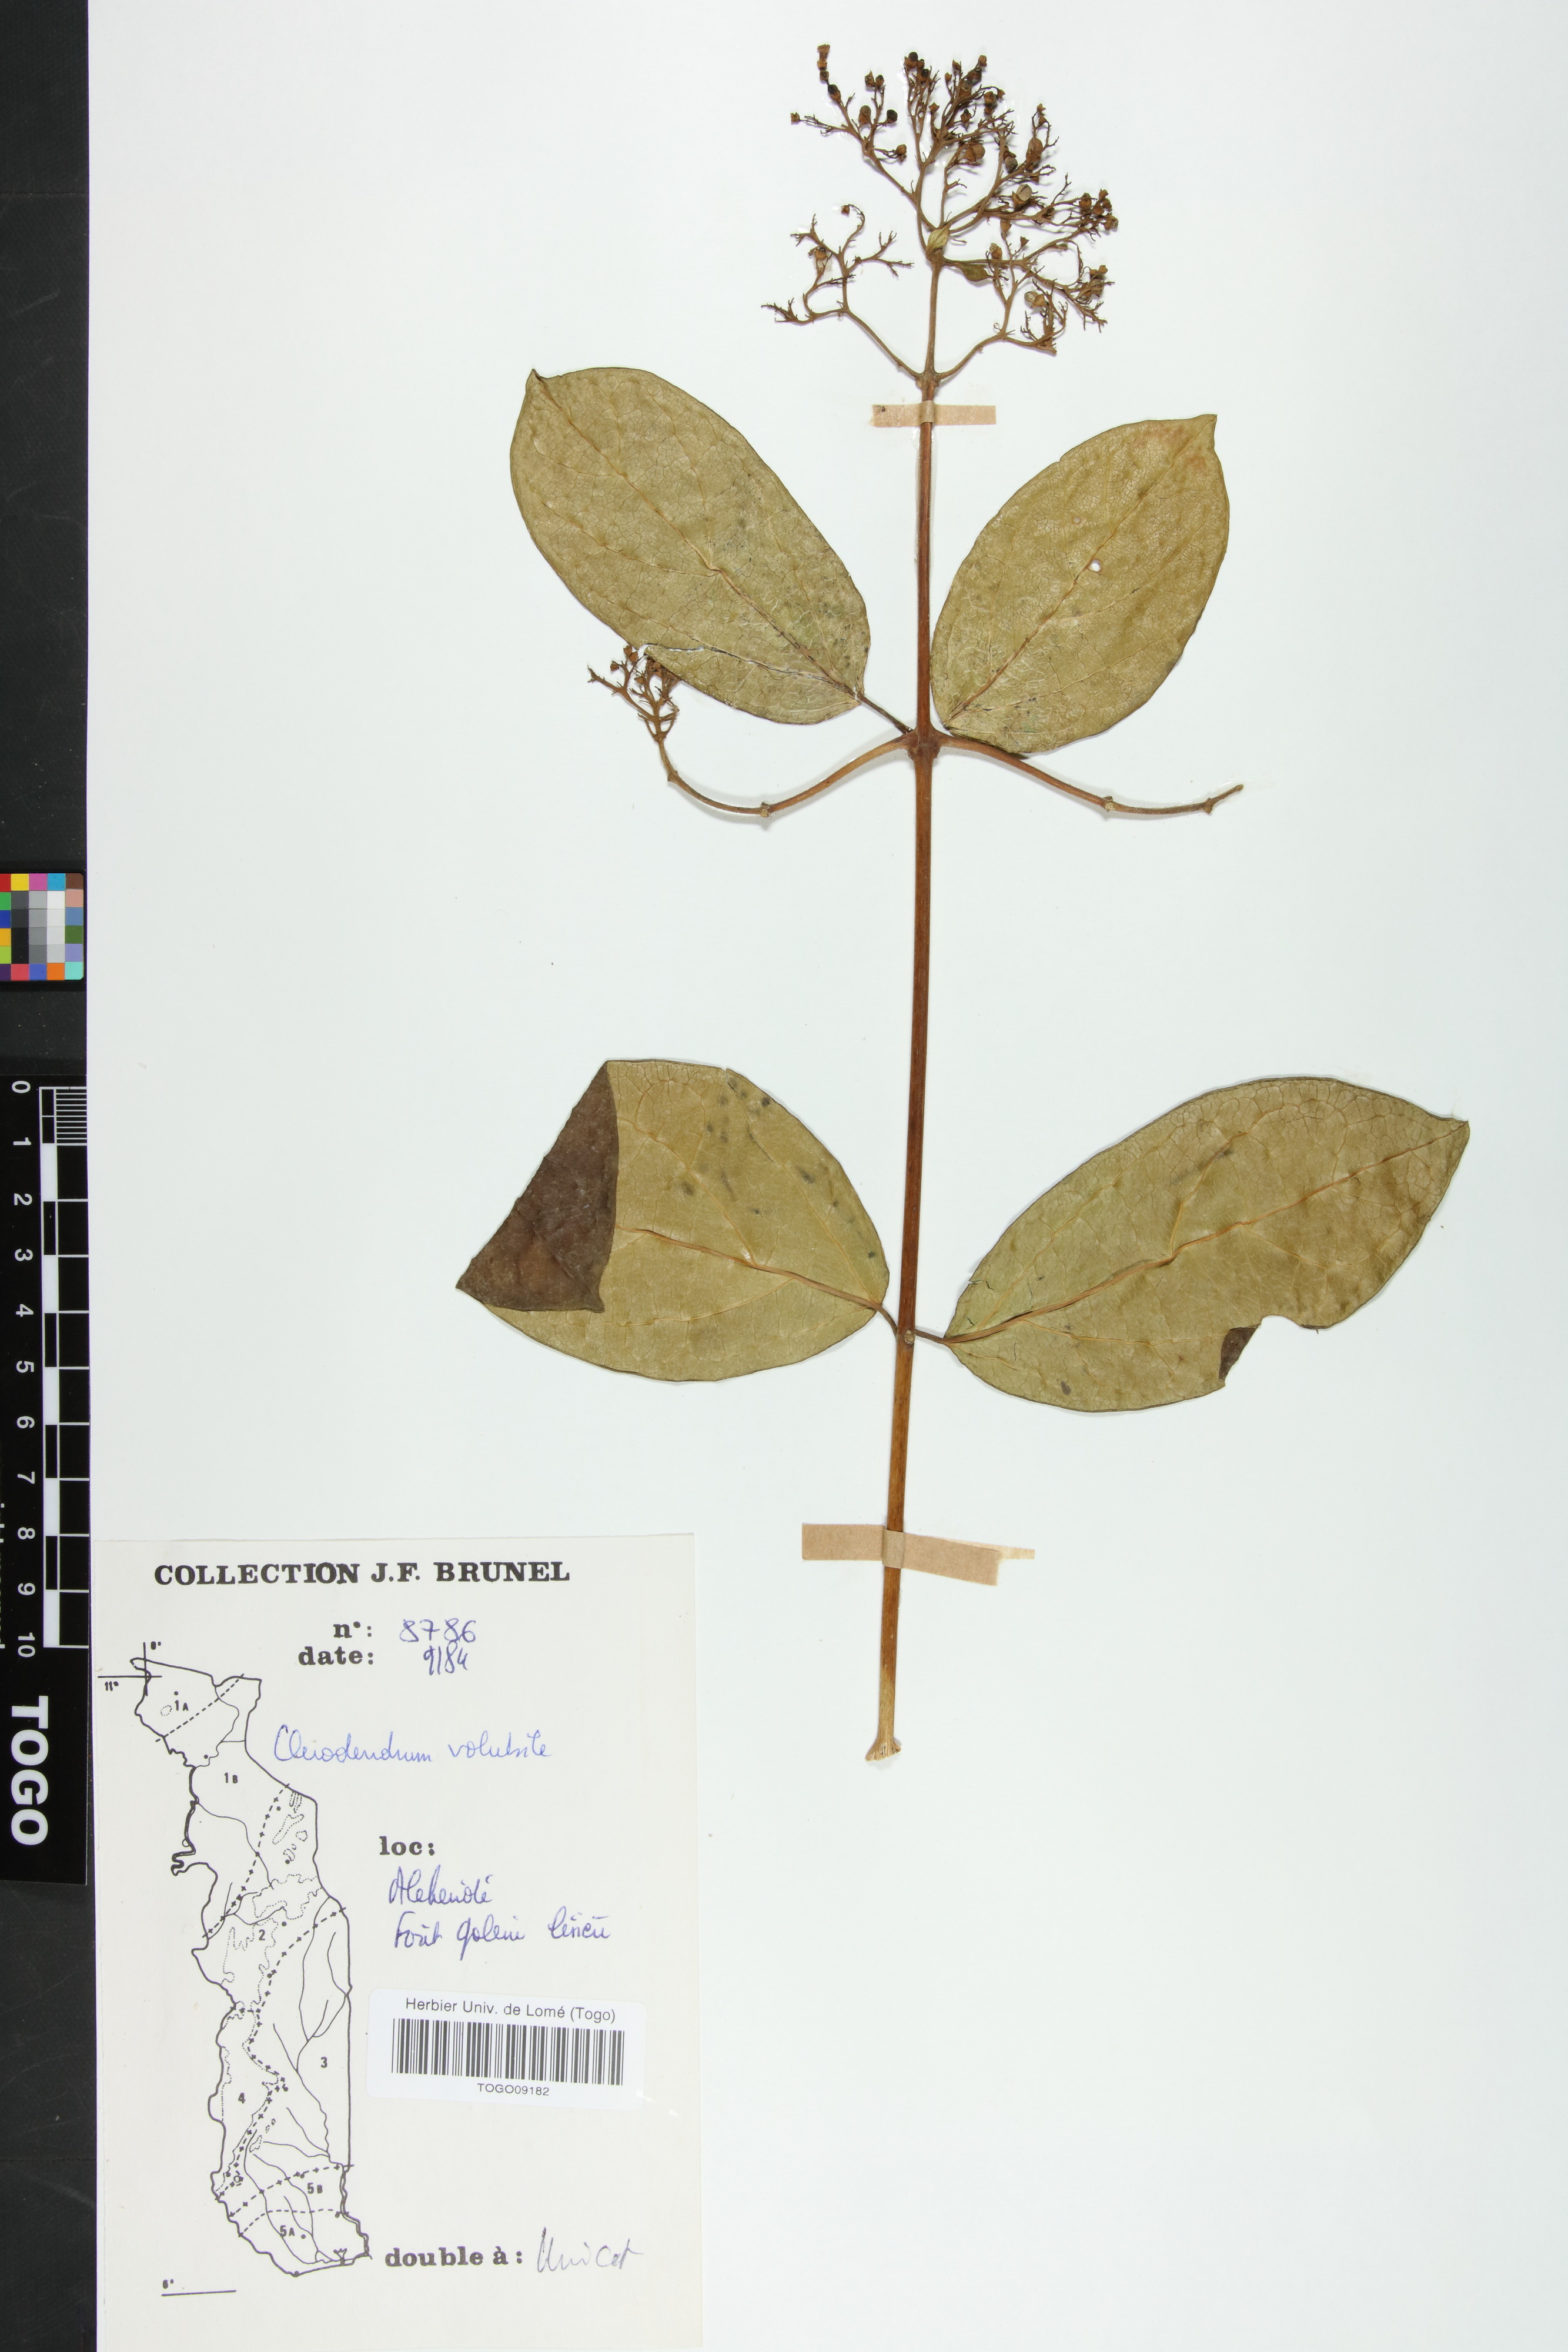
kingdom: Plantae
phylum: Tracheophyta
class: Magnoliopsida
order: Lamiales
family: Lamiaceae
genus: Clerodendrum
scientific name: Clerodendrum volubile
